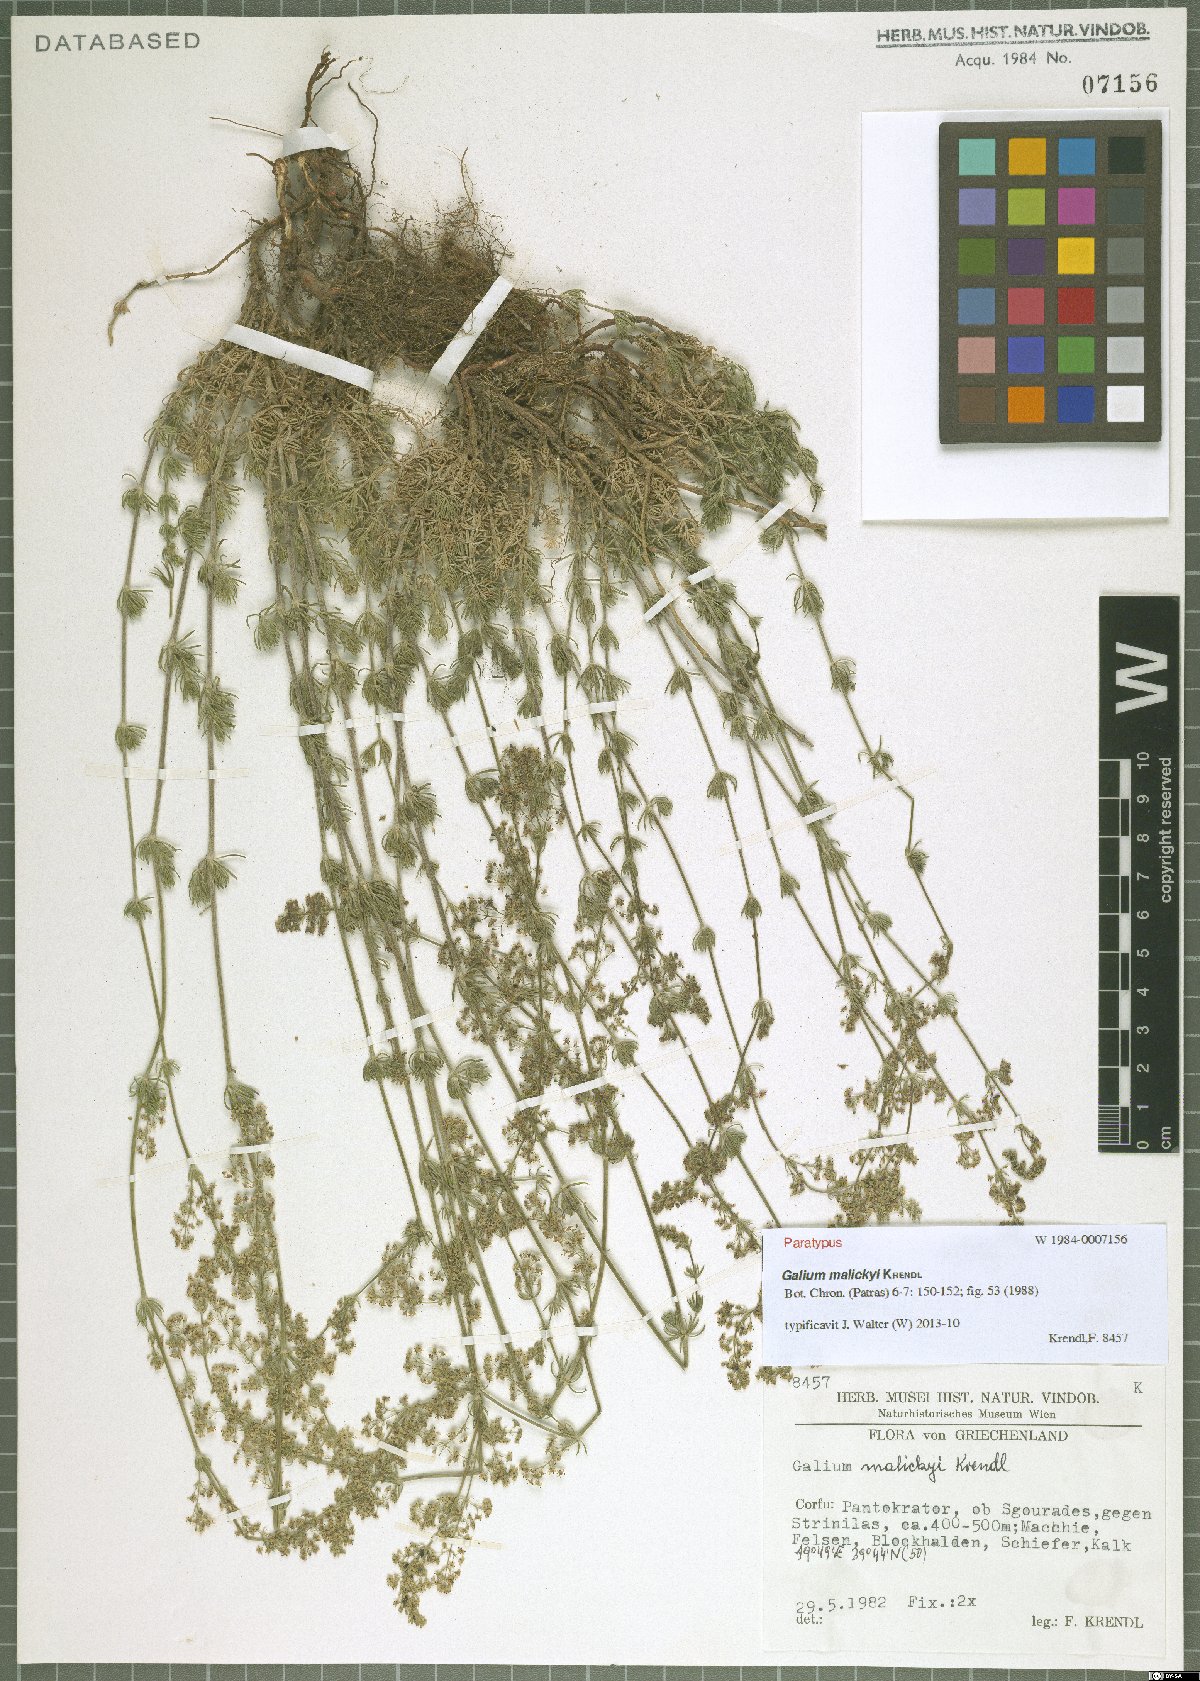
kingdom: Plantae
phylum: Tracheophyta
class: Magnoliopsida
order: Gentianales
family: Rubiaceae
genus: Galium
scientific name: Galium malickyi
